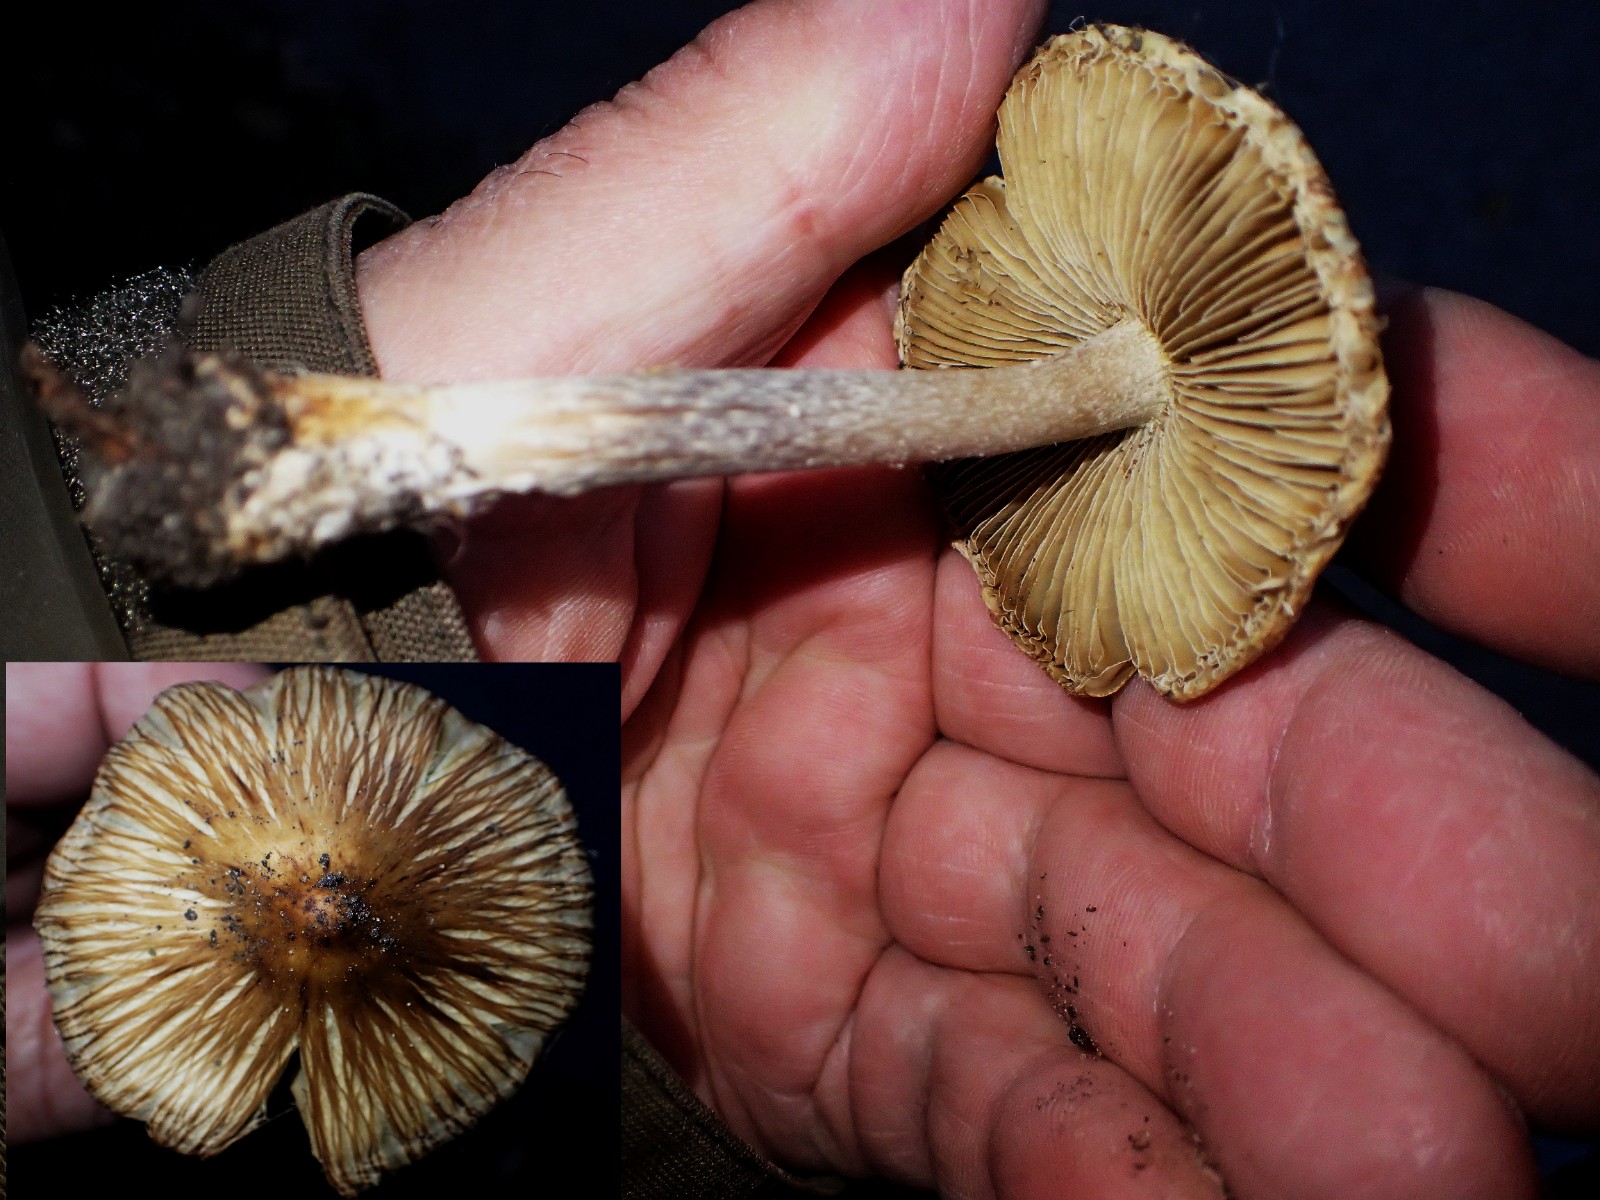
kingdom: Fungi
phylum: Basidiomycota
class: Agaricomycetes
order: Agaricales
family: Inocybaceae
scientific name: Inocybaceae
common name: trævlhatfamilien
